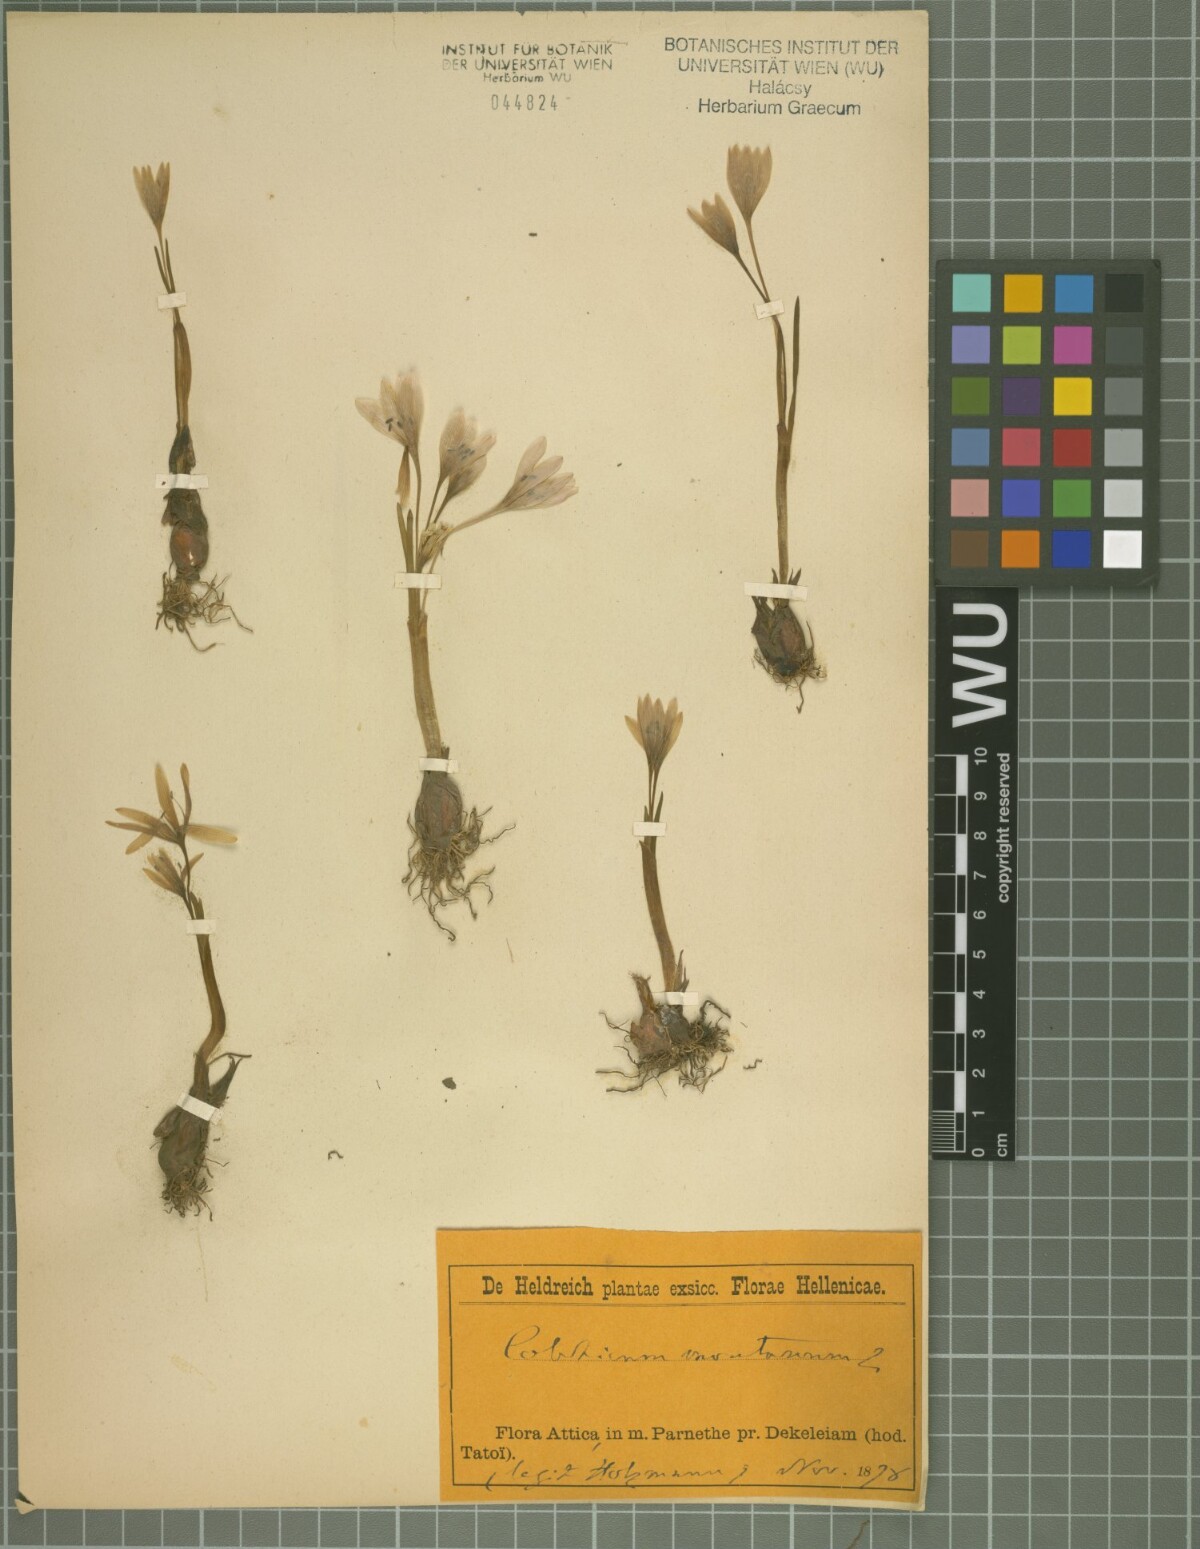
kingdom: Plantae
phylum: Tracheophyta
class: Liliopsida
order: Liliales
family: Colchicaceae
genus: Colchicum
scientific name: Colchicum cupanii
